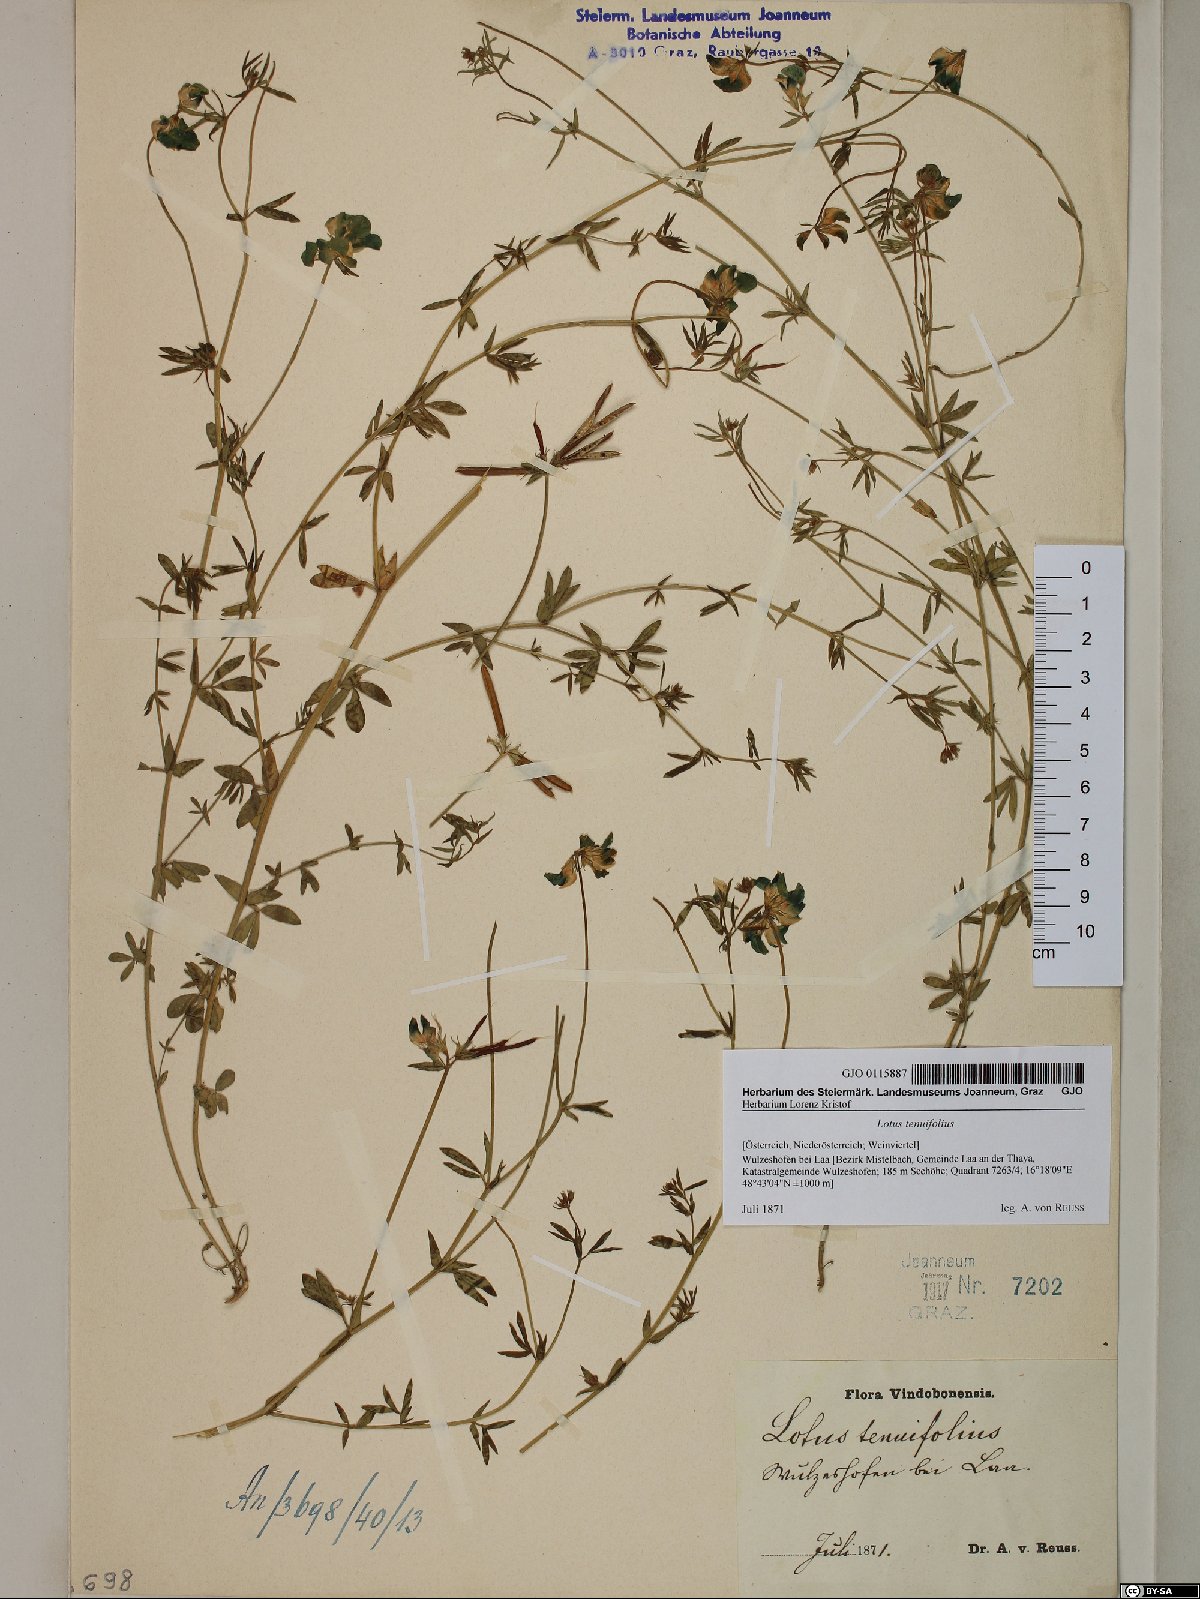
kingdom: Plantae
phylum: Tracheophyta
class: Magnoliopsida
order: Fabales
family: Fabaceae
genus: Lotus
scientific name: Lotus tenuis
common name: Narrow-leaved bird's-foot-trefoil
